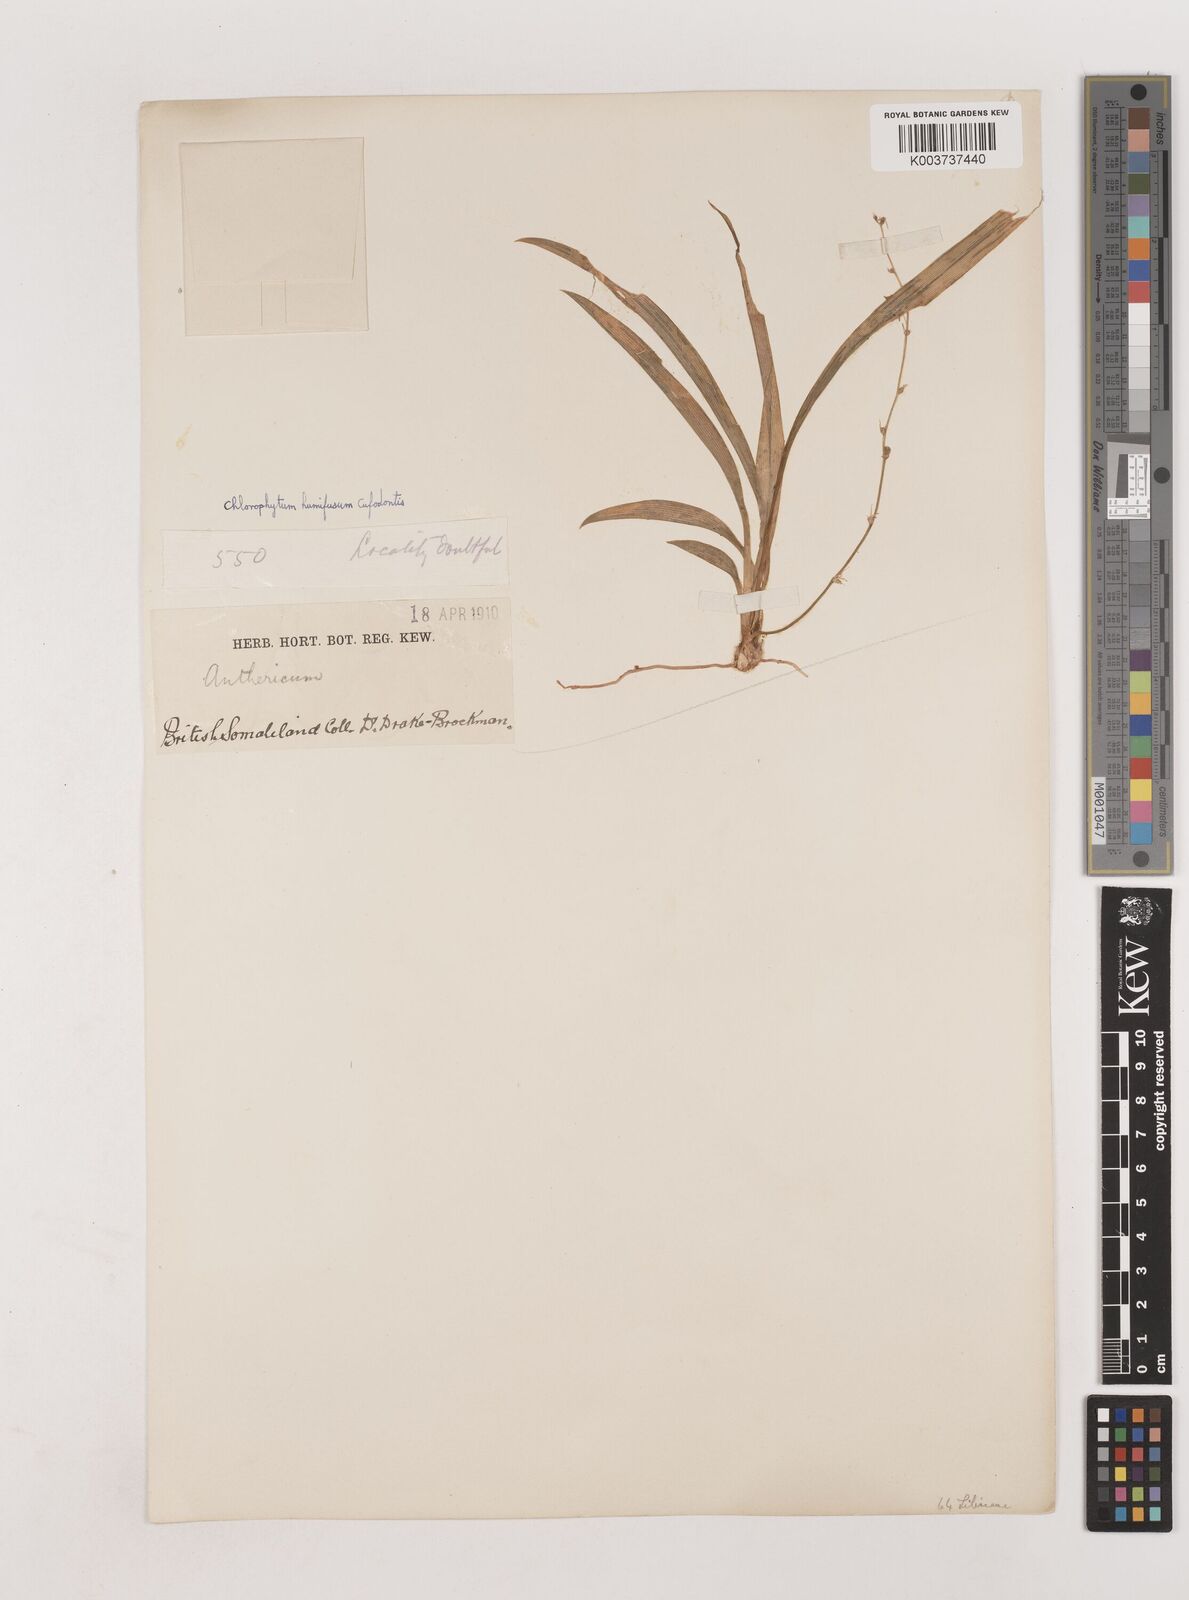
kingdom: Plantae
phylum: Tracheophyta
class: Liliopsida
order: Asparagales
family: Asparagaceae
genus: Chlorophytum
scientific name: Chlorophytum humifusum
